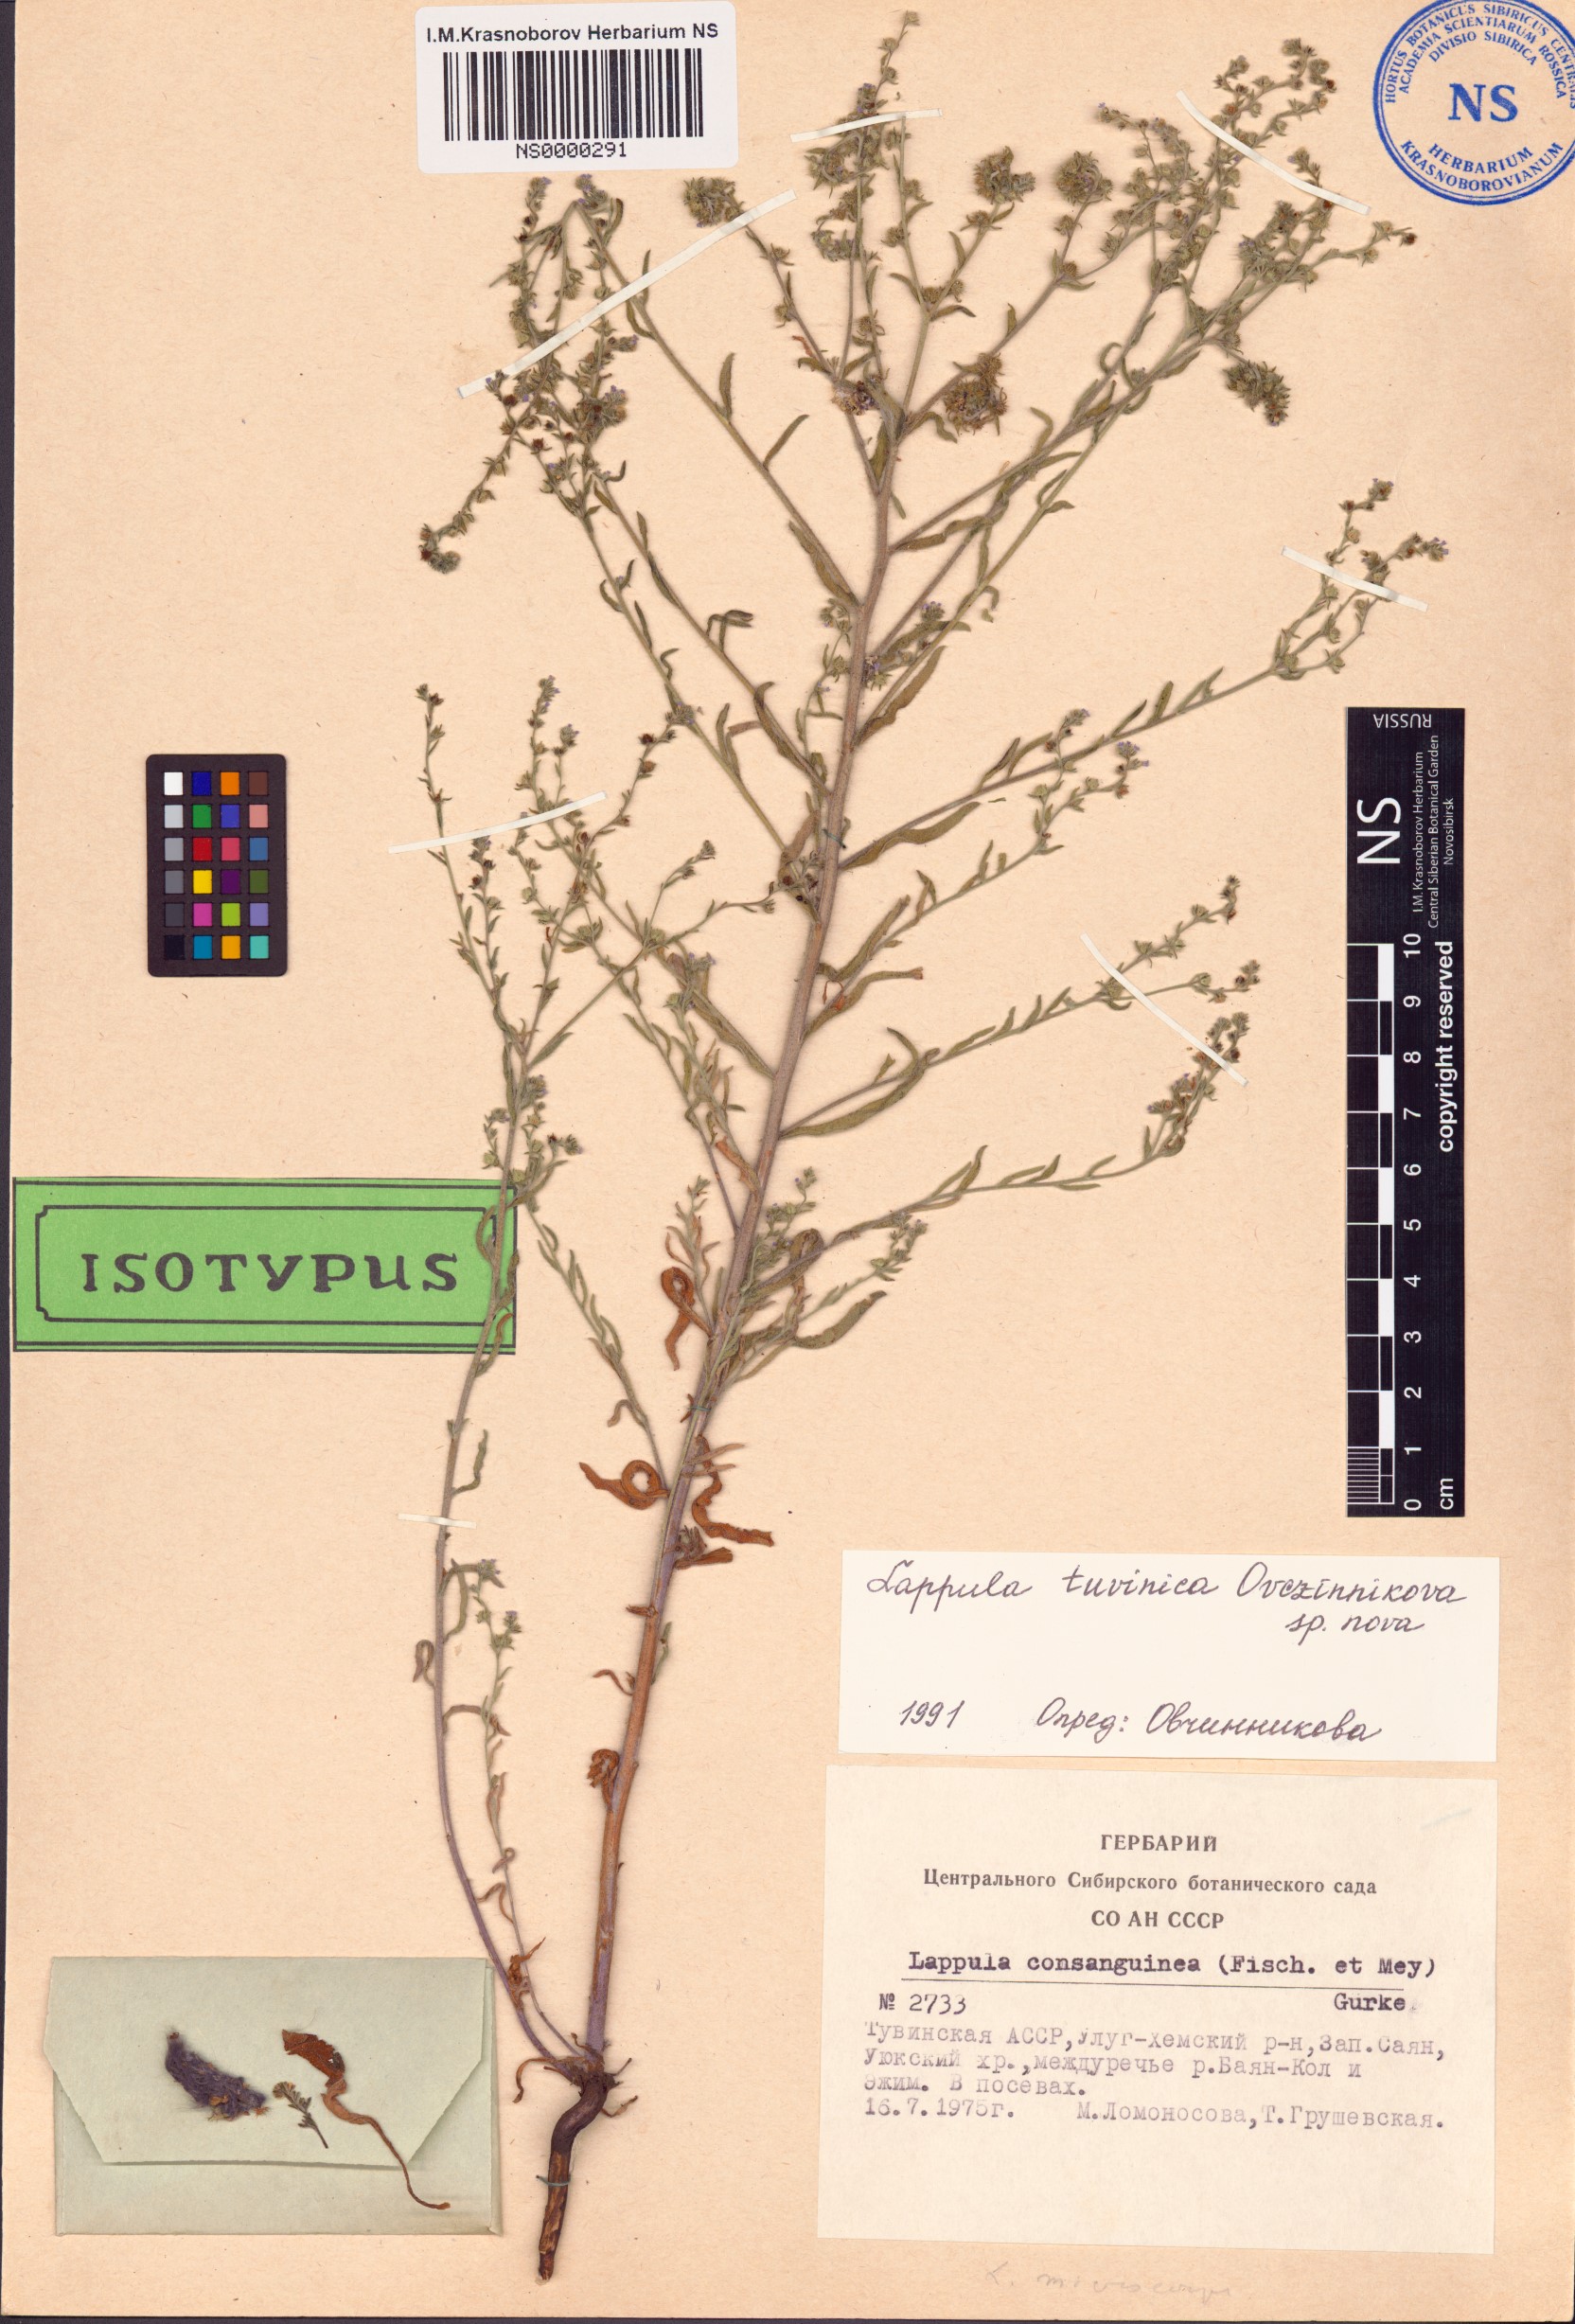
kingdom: Plantae
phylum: Tracheophyta
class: Magnoliopsida
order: Boraginales
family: Boraginaceae
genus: Lappula
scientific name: Lappula tuvinica
